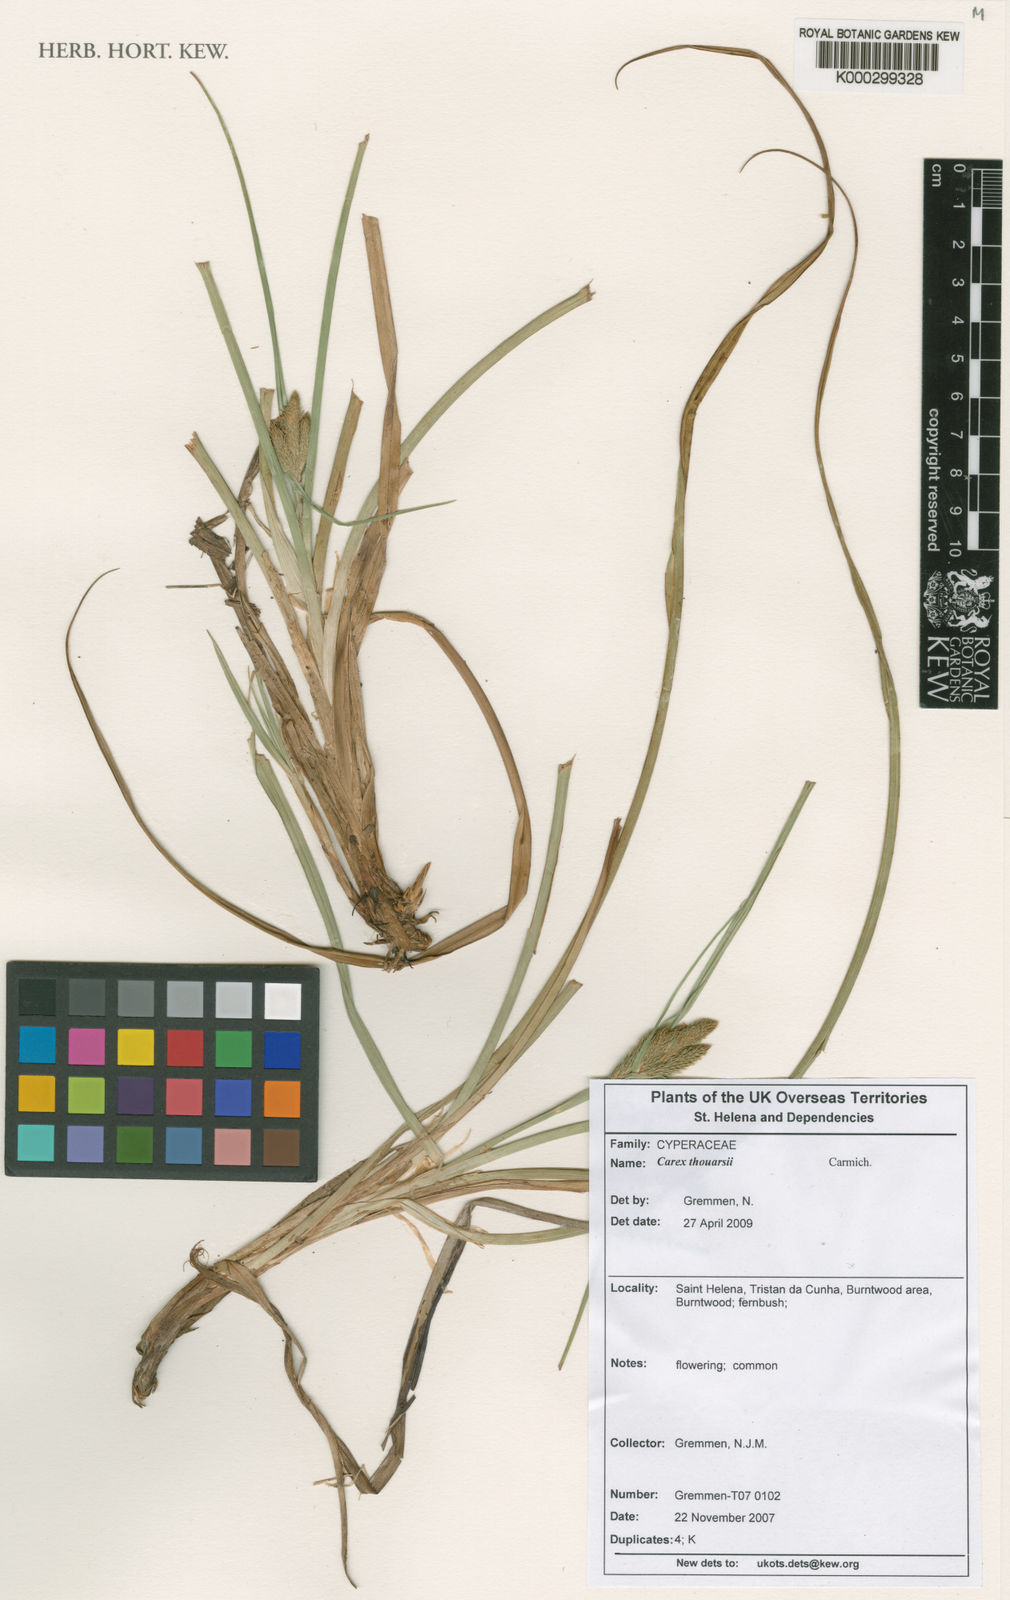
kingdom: Plantae
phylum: Tracheophyta
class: Liliopsida
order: Poales
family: Cyperaceae
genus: Carex
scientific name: Carex thouarsii
